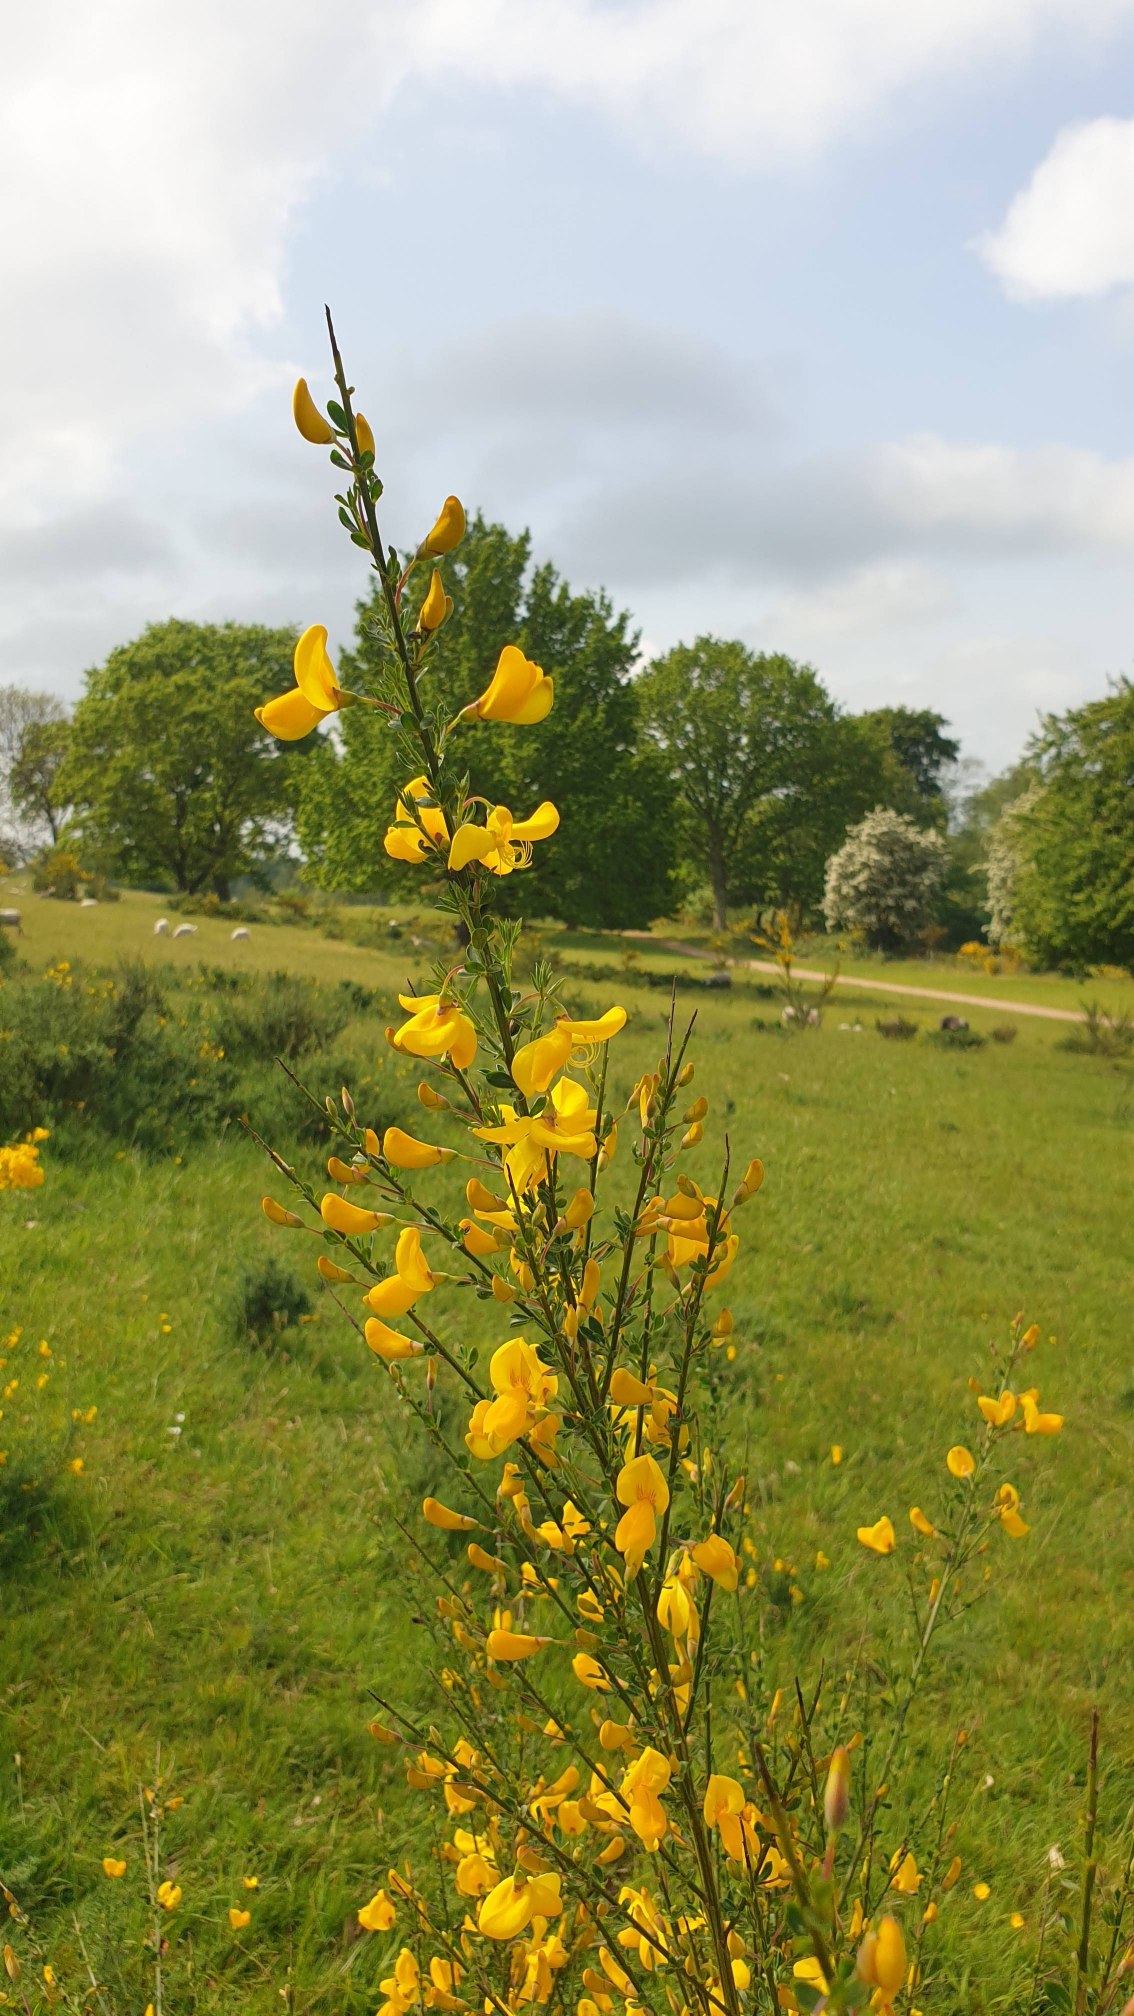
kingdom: Plantae
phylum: Tracheophyta
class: Magnoliopsida
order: Fabales
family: Fabaceae
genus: Cytisus
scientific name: Cytisus scoparius
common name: Almindelig gyvel
